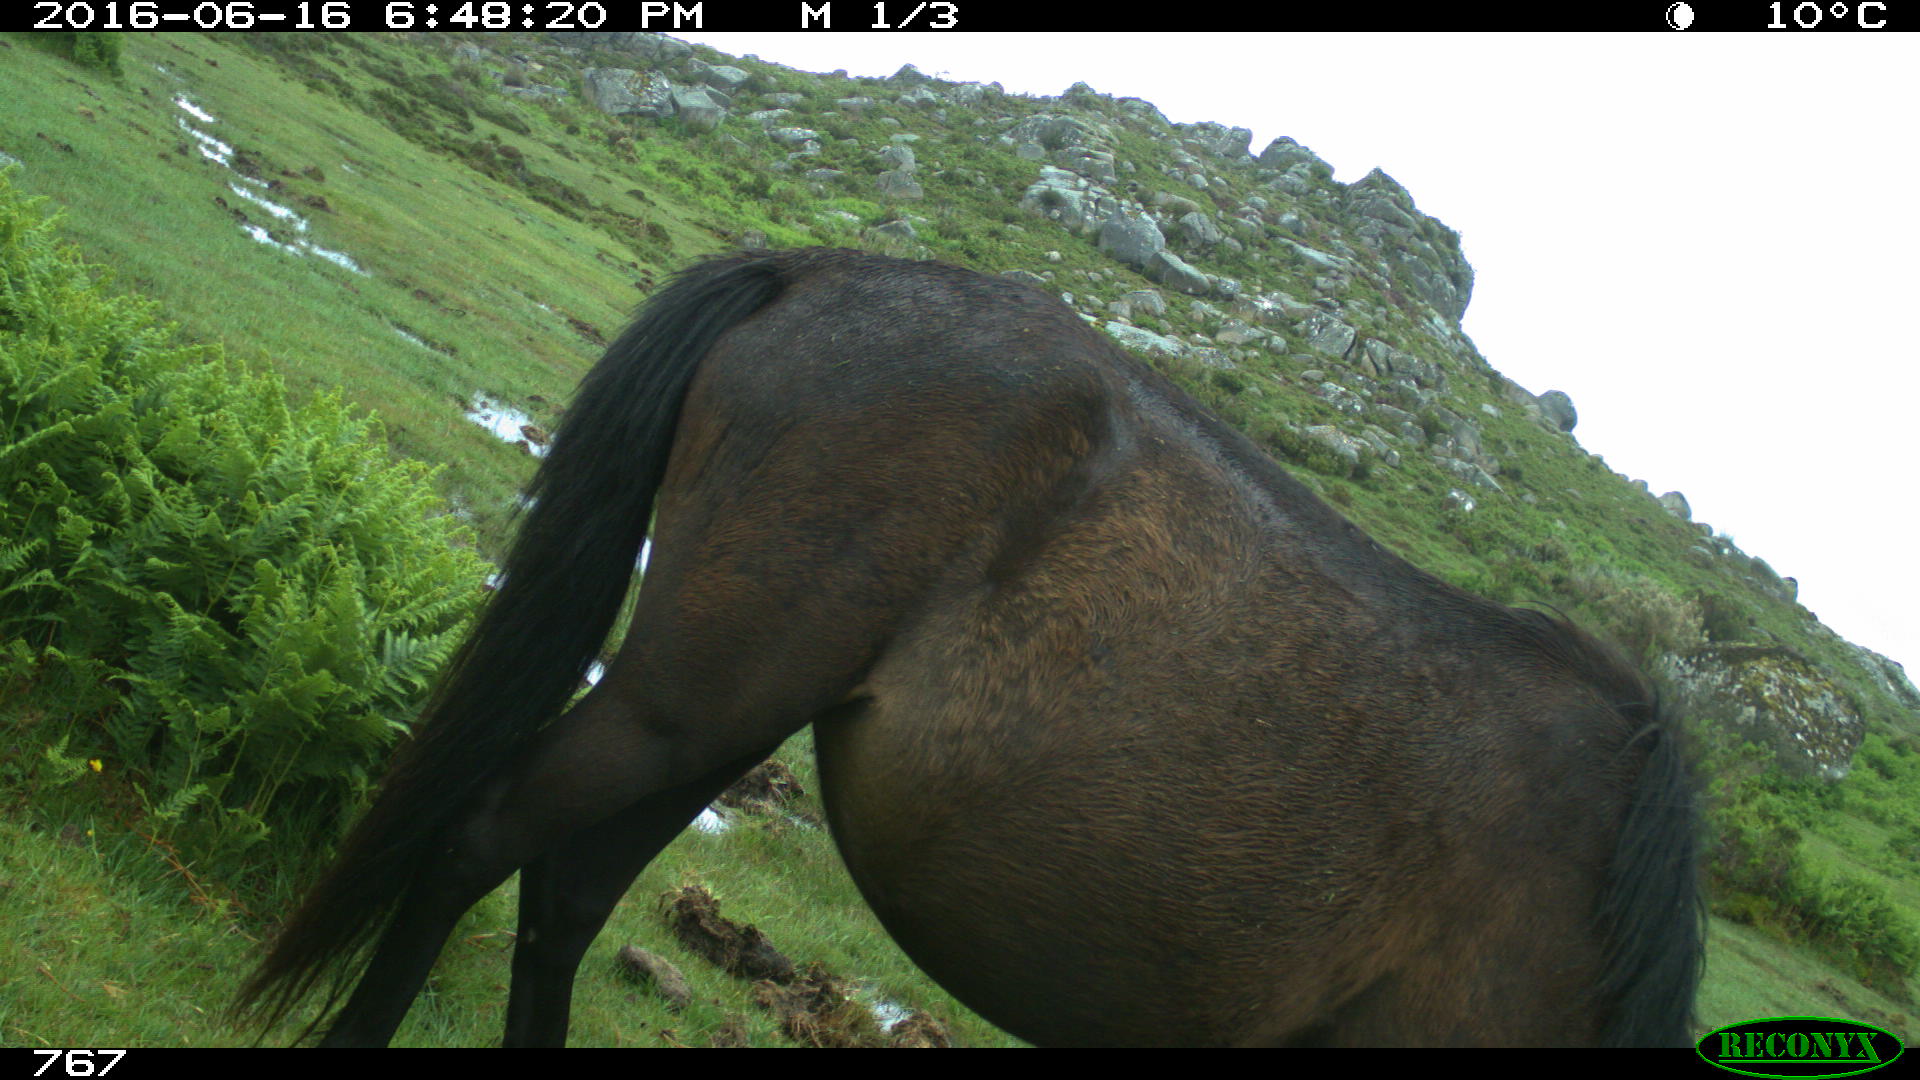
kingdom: Animalia
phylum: Chordata
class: Mammalia
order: Perissodactyla
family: Equidae
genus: Equus
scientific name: Equus caballus
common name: Horse
